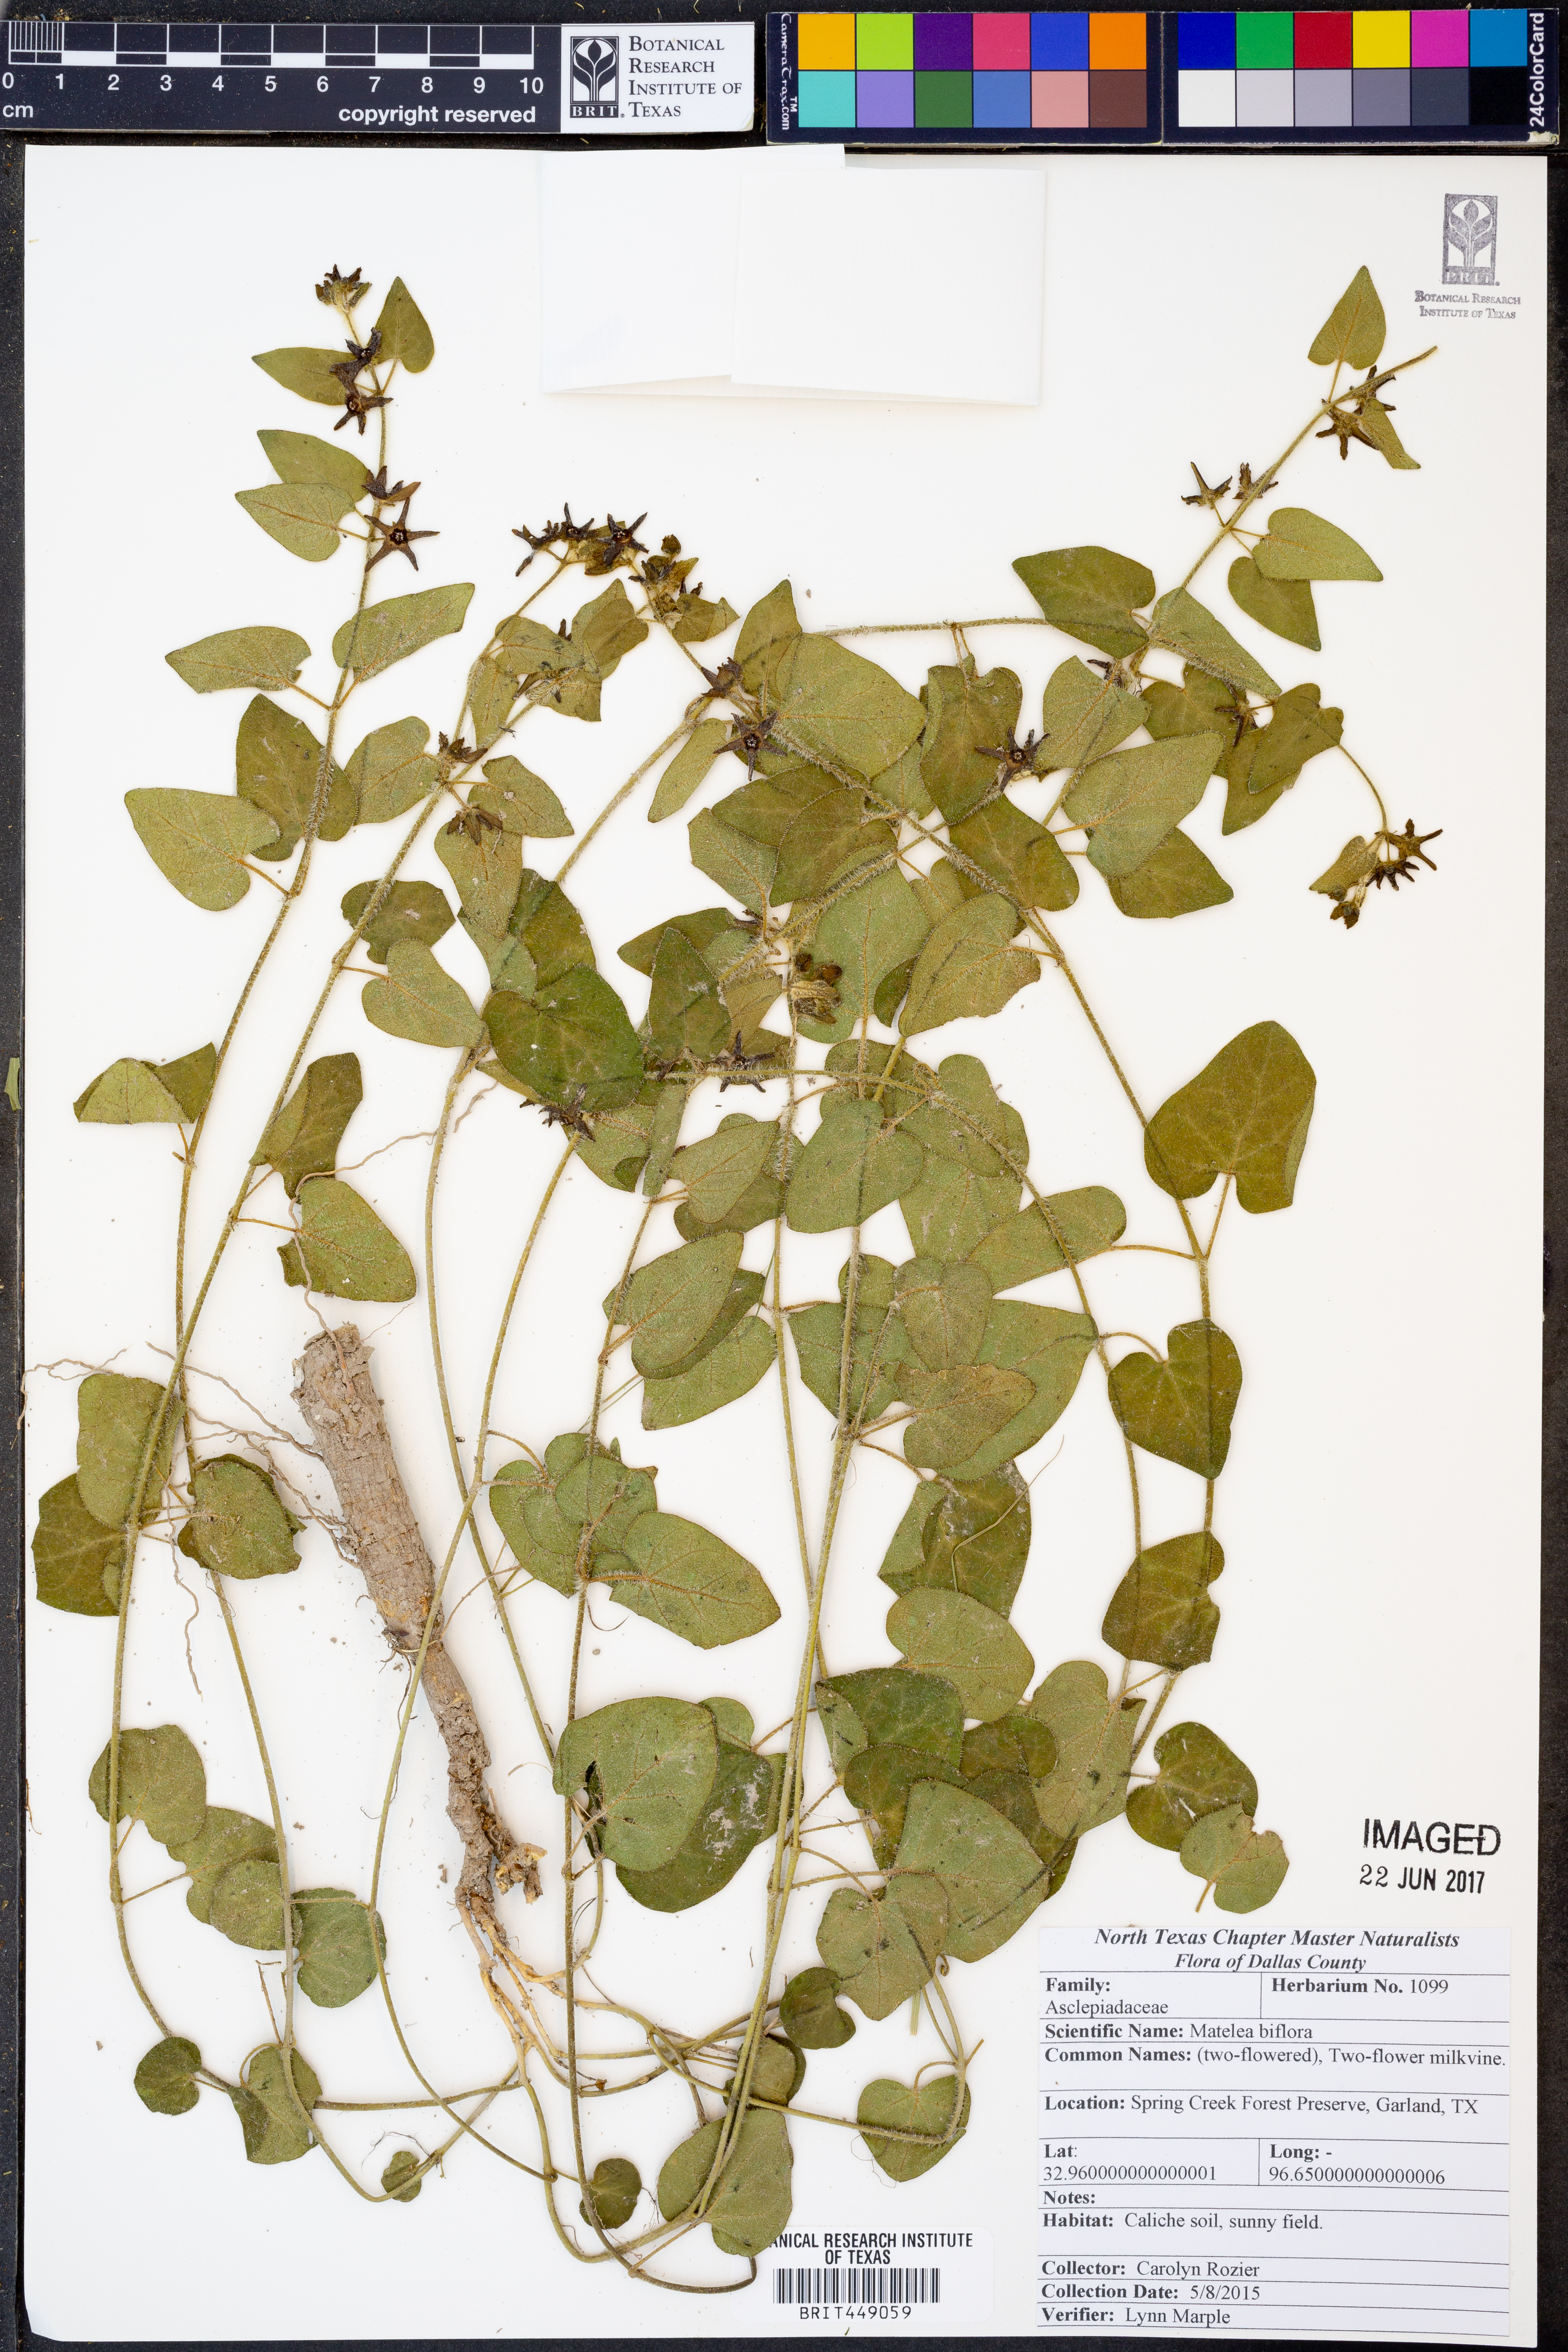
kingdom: Plantae
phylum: Tracheophyta
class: Magnoliopsida
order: Gentianales
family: Apocynaceae
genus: Chthamalia
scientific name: Chthamalia biflora
